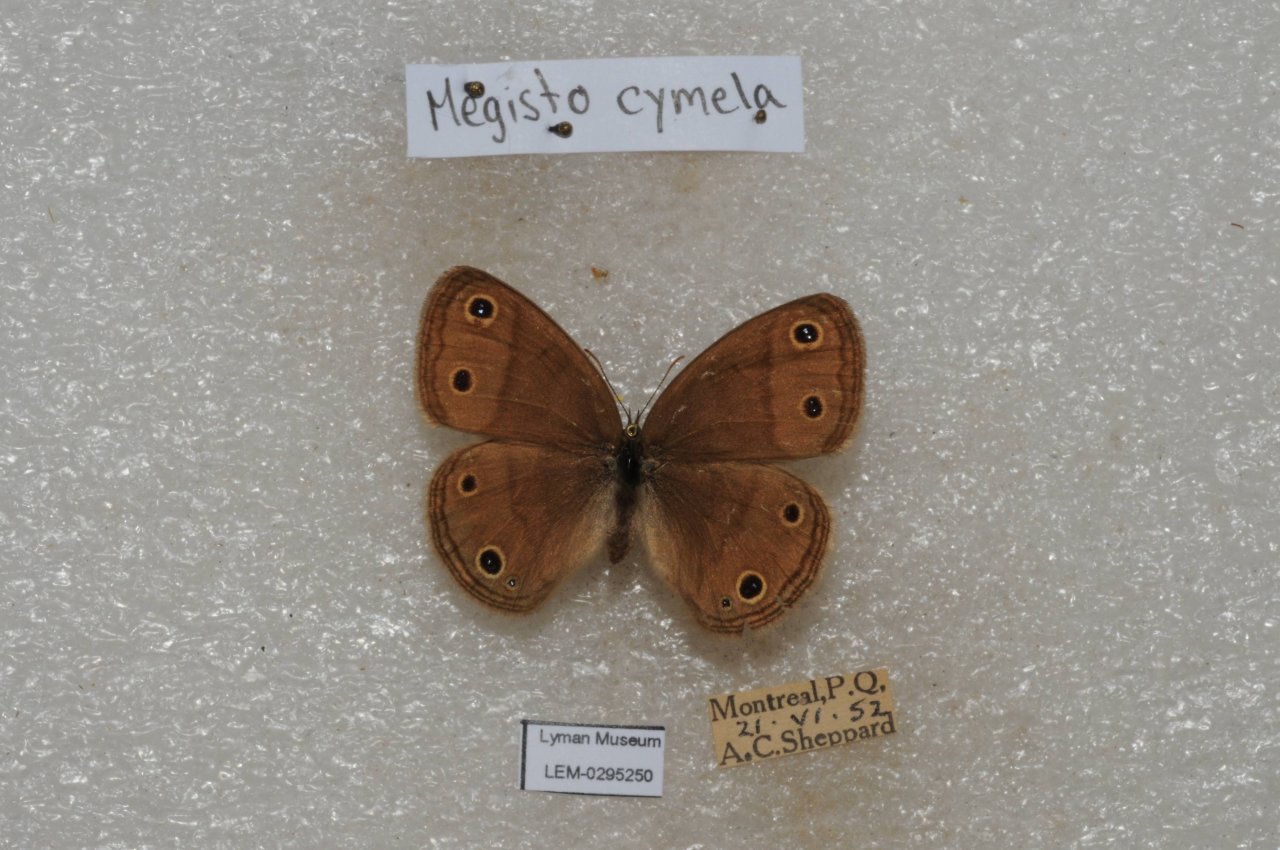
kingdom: Animalia
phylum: Arthropoda
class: Insecta
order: Lepidoptera
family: Nymphalidae
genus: Euptychia
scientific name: Euptychia cymela
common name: Little Wood Satyr
